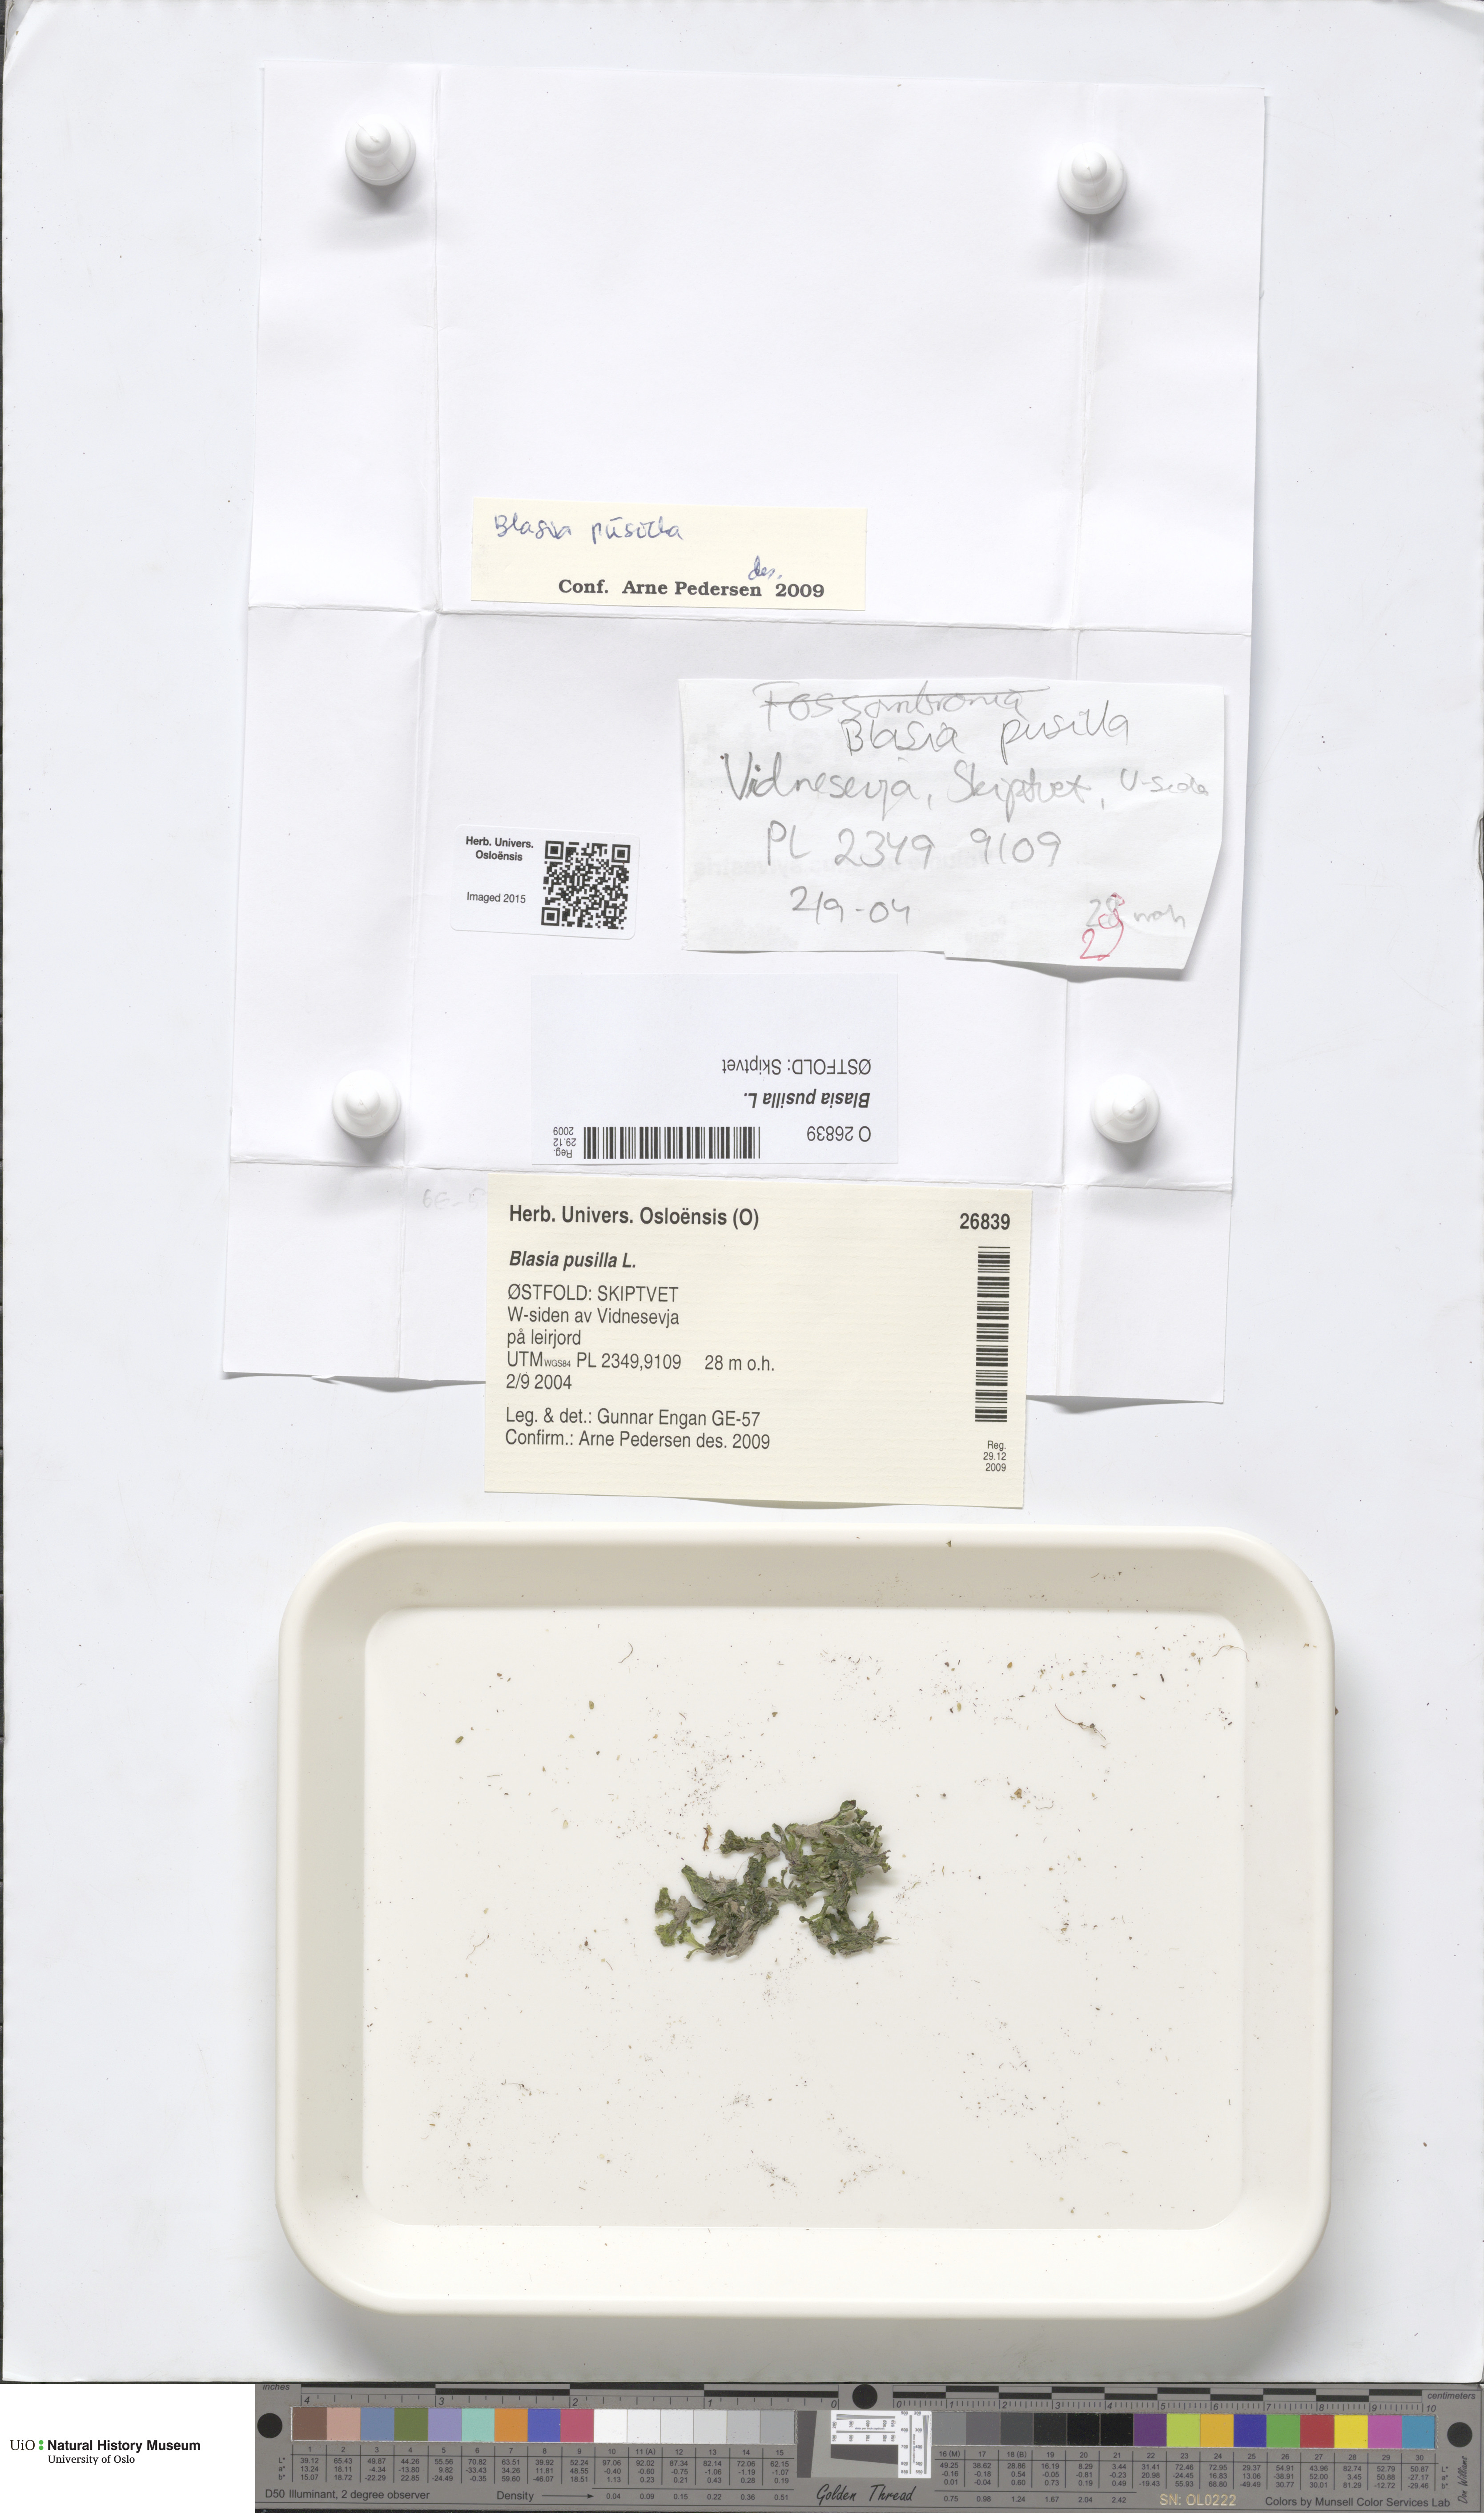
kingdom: Plantae
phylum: Marchantiophyta
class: Marchantiopsida
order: Blasiales
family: Blasiaceae
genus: Blasia
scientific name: Blasia pusilla
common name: Common kettlewort
